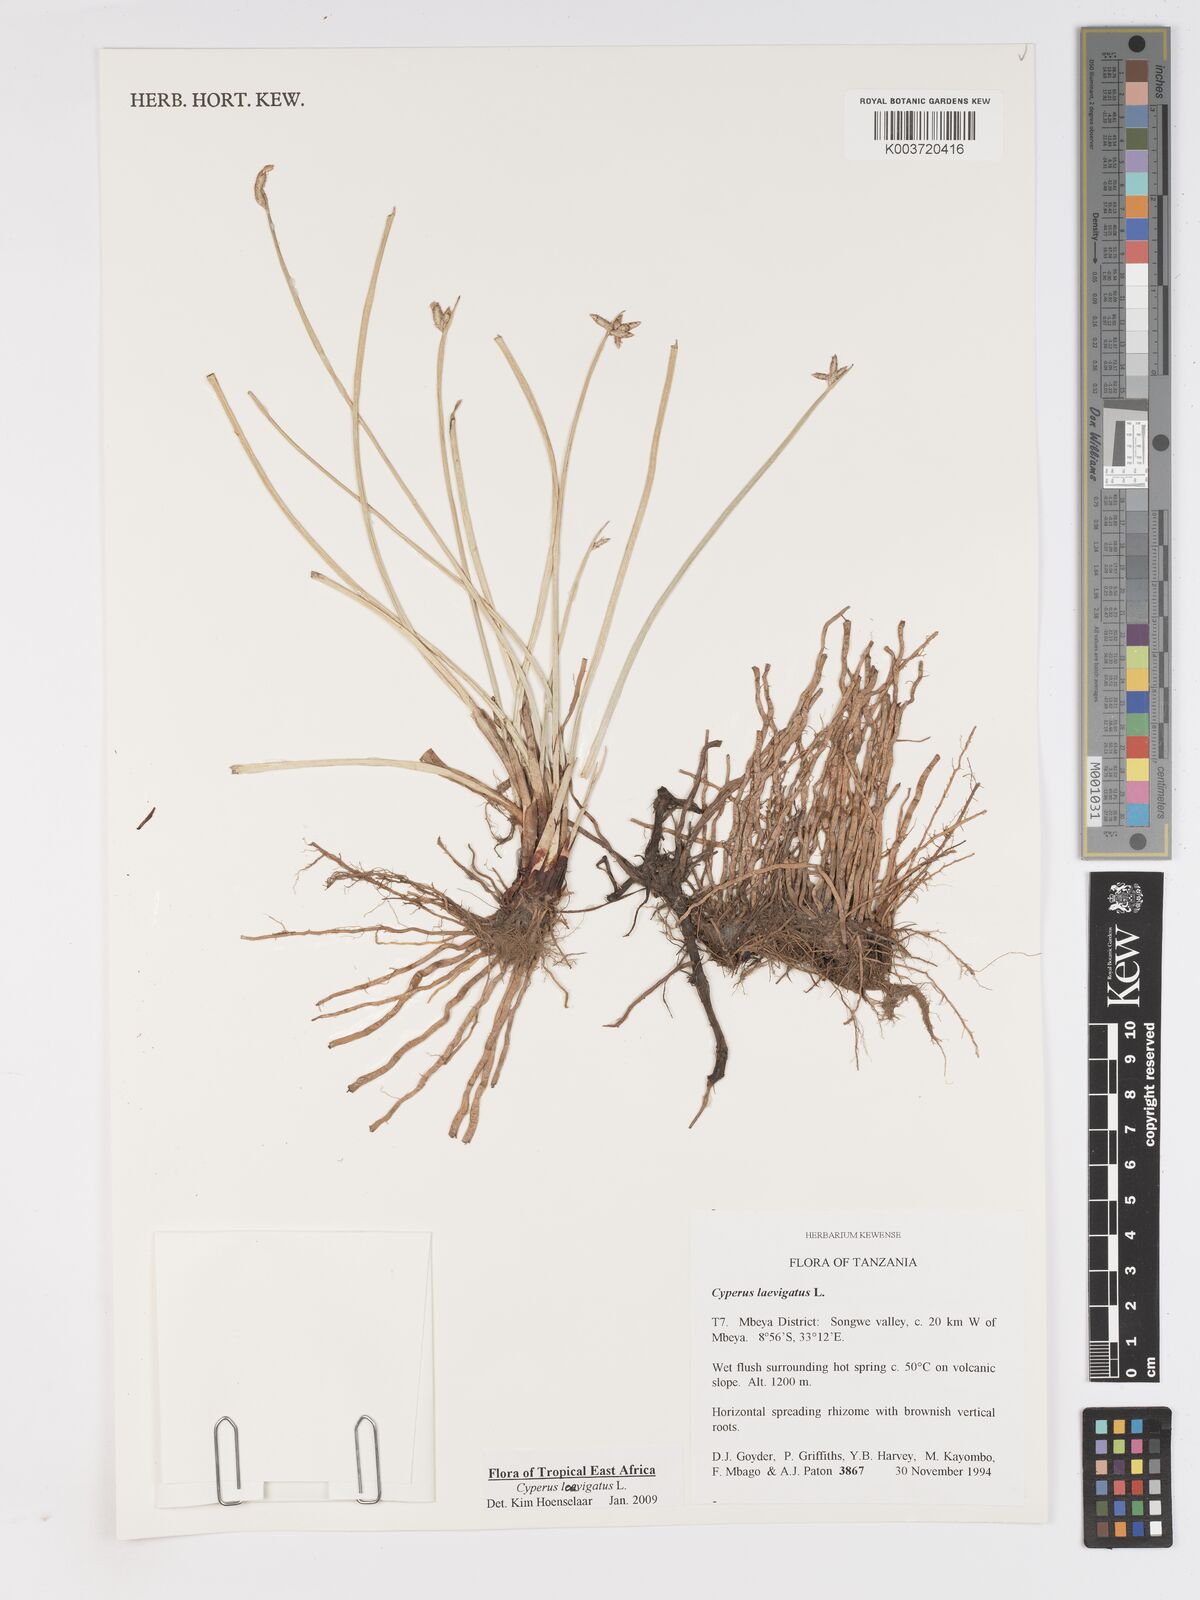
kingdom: Plantae
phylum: Tracheophyta
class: Liliopsida
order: Poales
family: Cyperaceae
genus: Cyperus
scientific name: Cyperus laevigatus
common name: Smooth flat sedge
